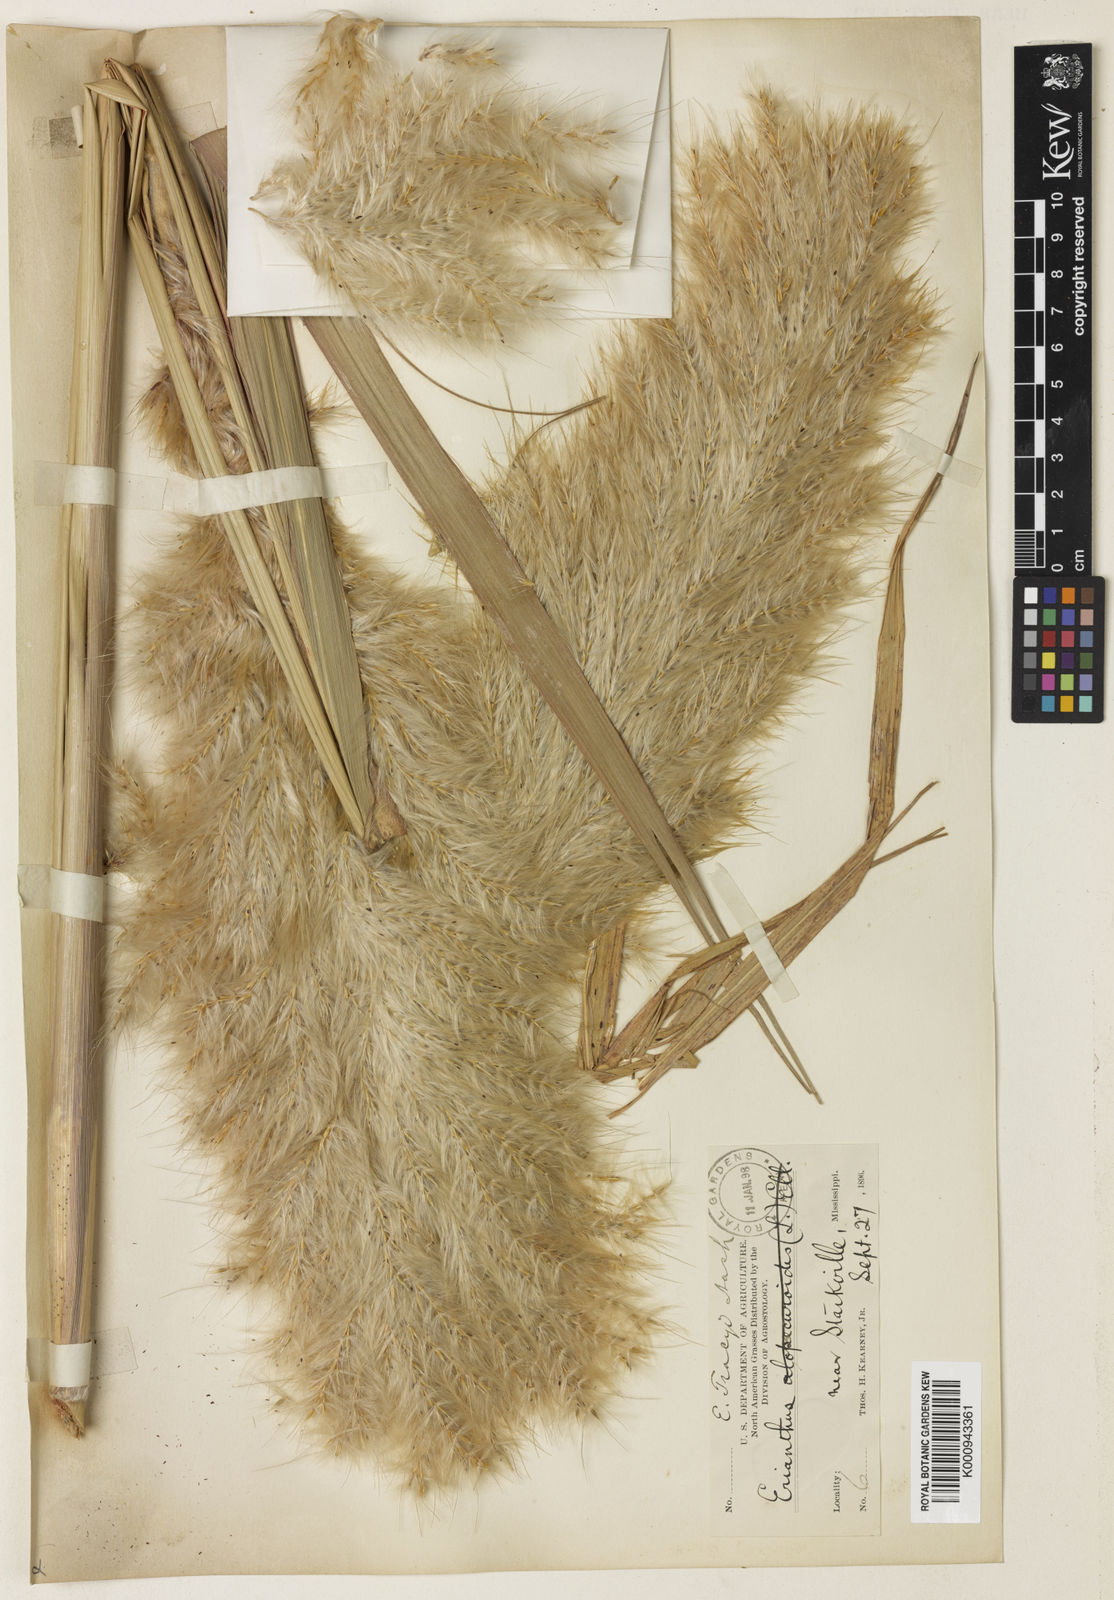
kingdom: Plantae
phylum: Tracheophyta
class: Liliopsida
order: Poales
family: Poaceae
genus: Saccharum
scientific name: Saccharum
